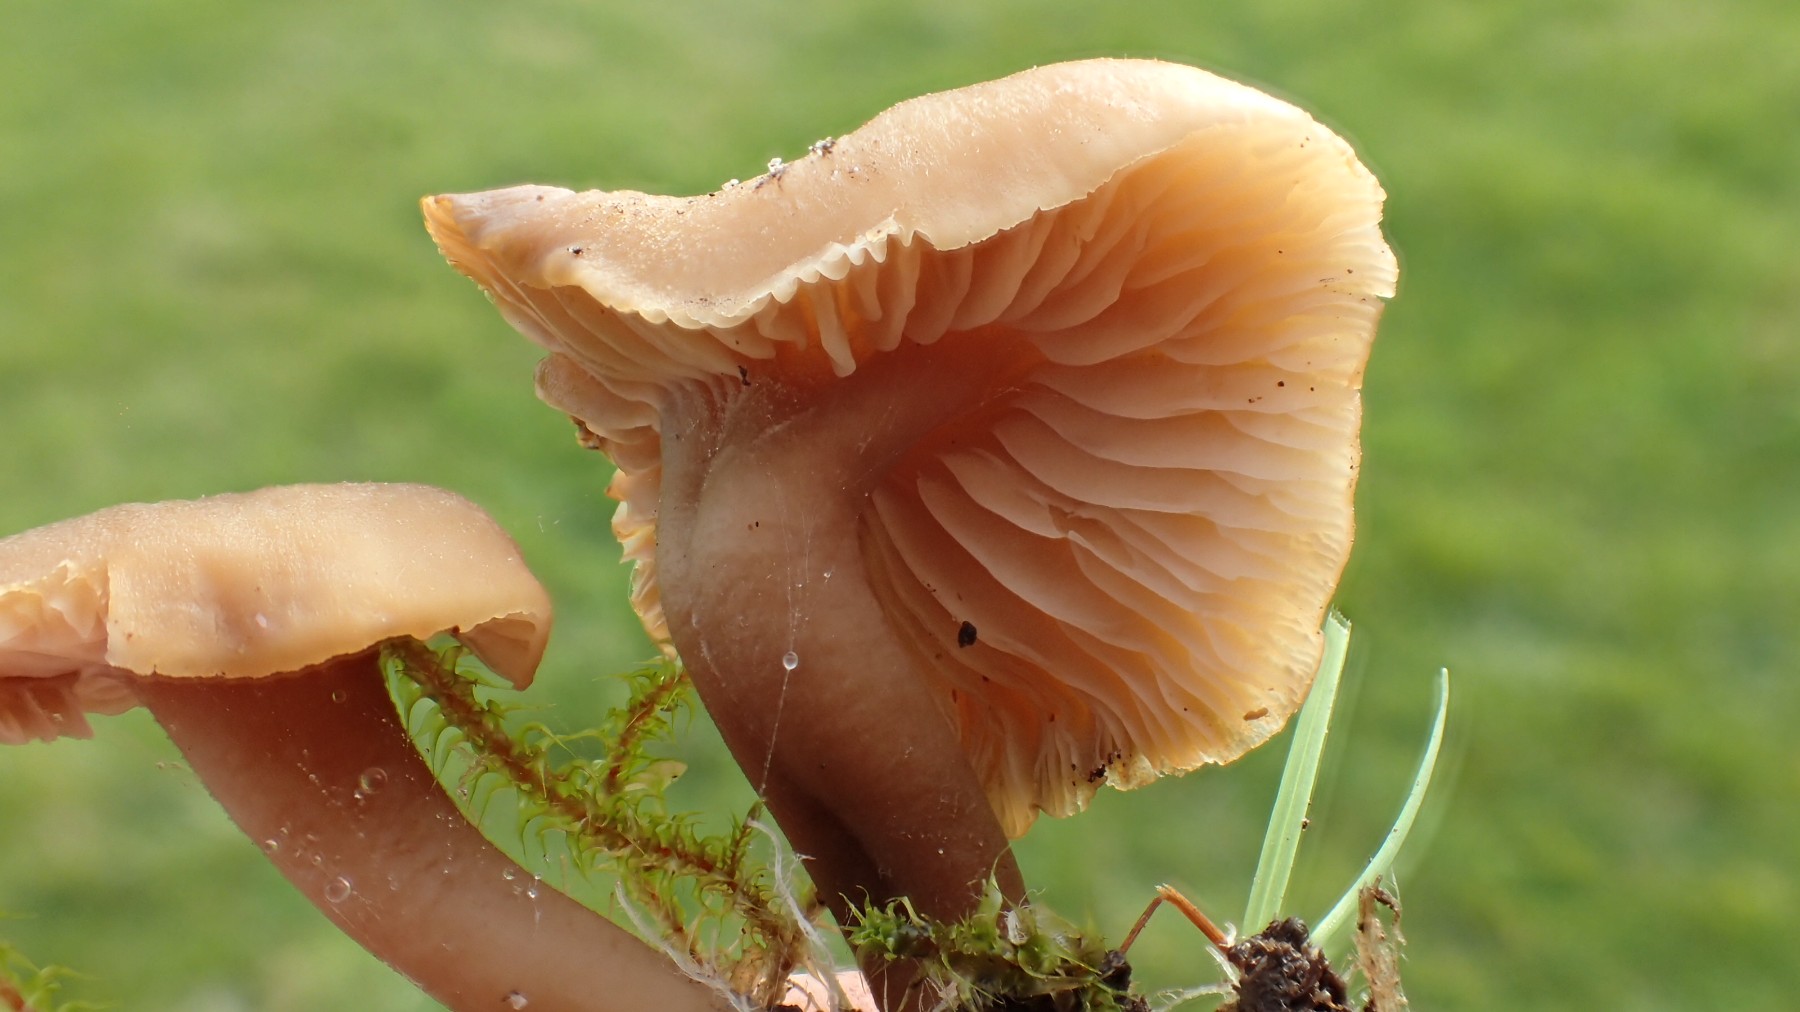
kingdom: Fungi
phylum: Basidiomycota
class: Agaricomycetes
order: Agaricales
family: Clavariaceae
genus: Camarophyllopsis
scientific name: Camarophyllopsis schulzeri
